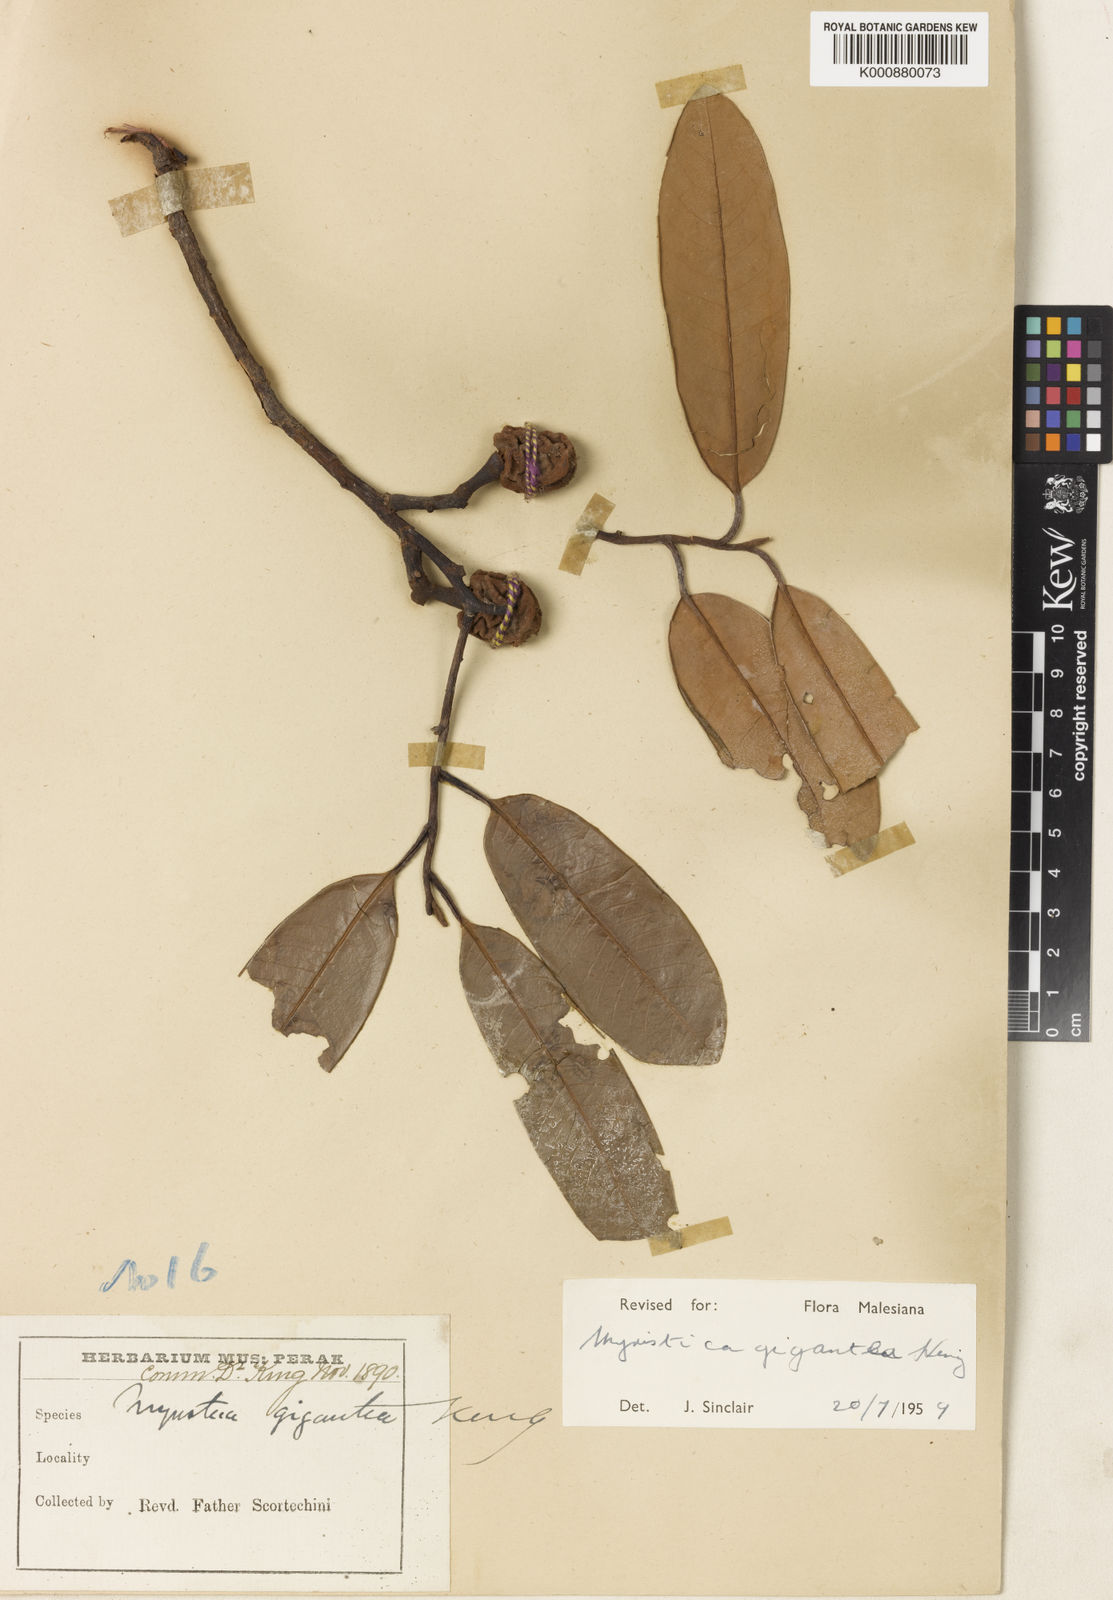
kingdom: Plantae
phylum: Tracheophyta
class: Magnoliopsida
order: Magnoliales
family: Myristicaceae
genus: Myristica
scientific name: Myristica gigantea
